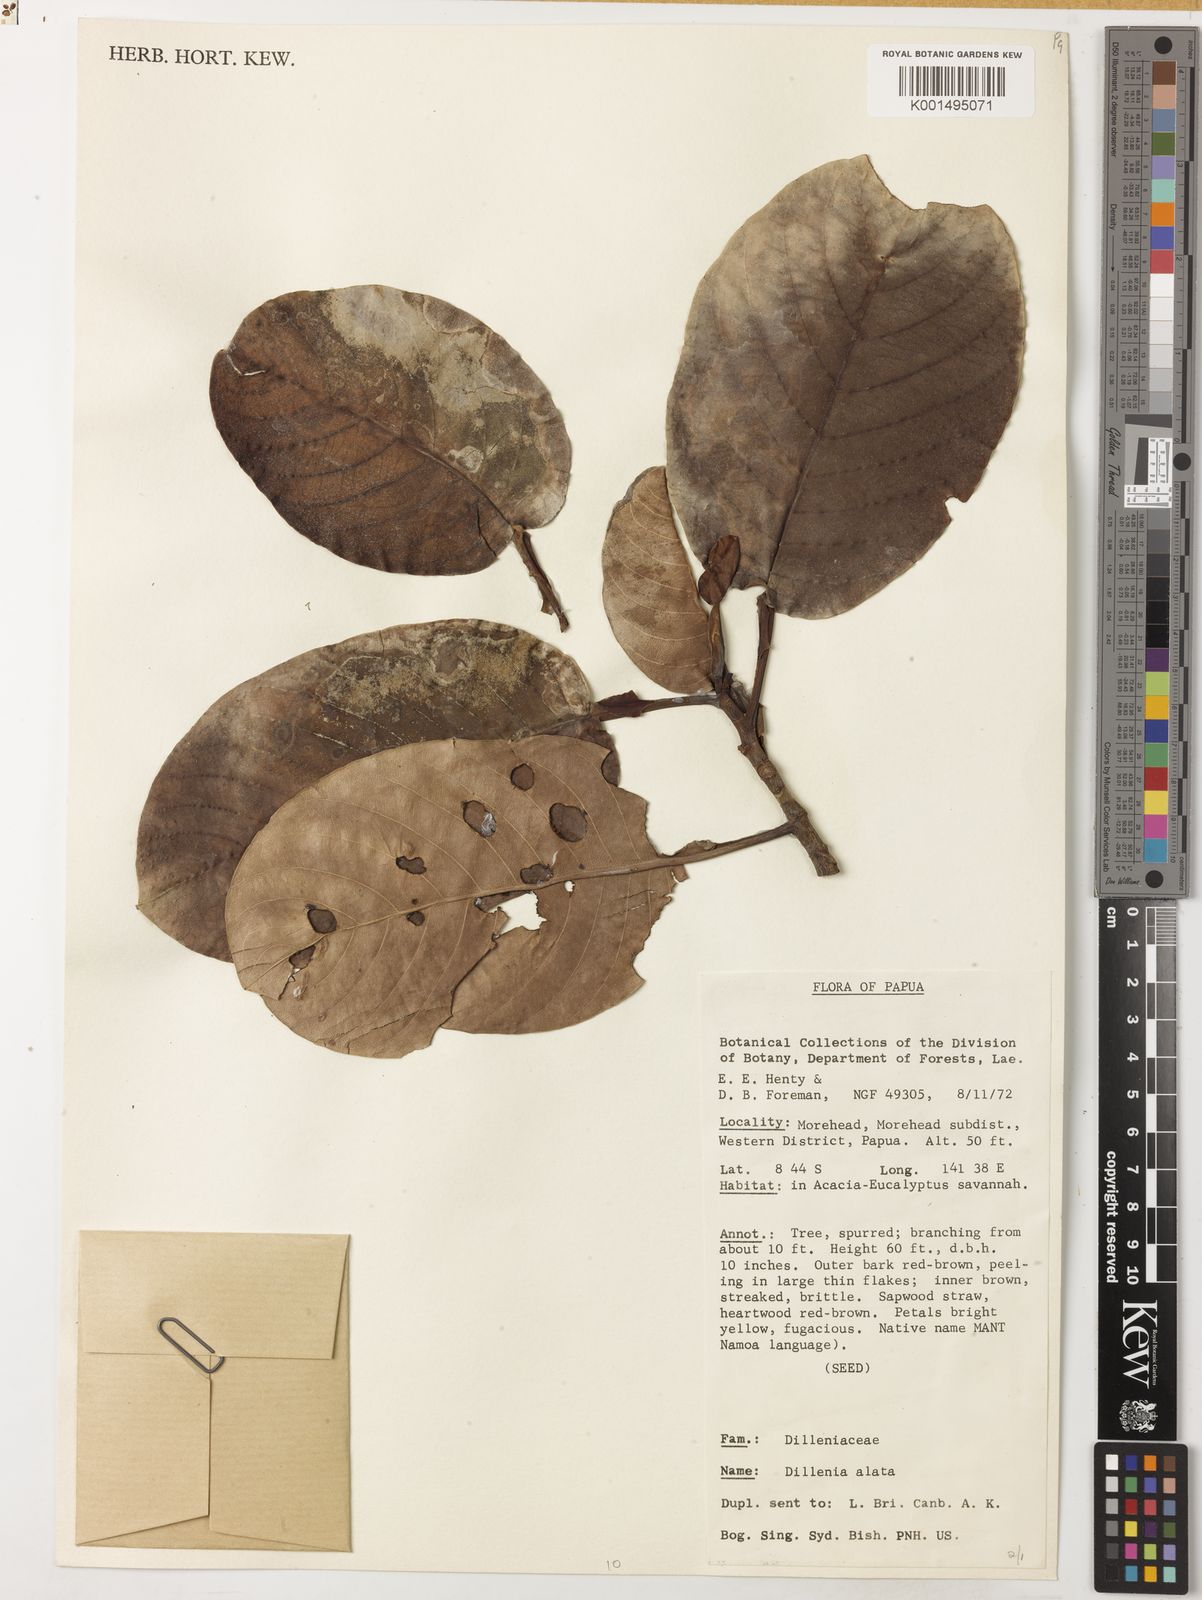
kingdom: Plantae
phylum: Tracheophyta
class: Magnoliopsida
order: Dilleniales
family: Dilleniaceae
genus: Dillenia
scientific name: Dillenia alata
